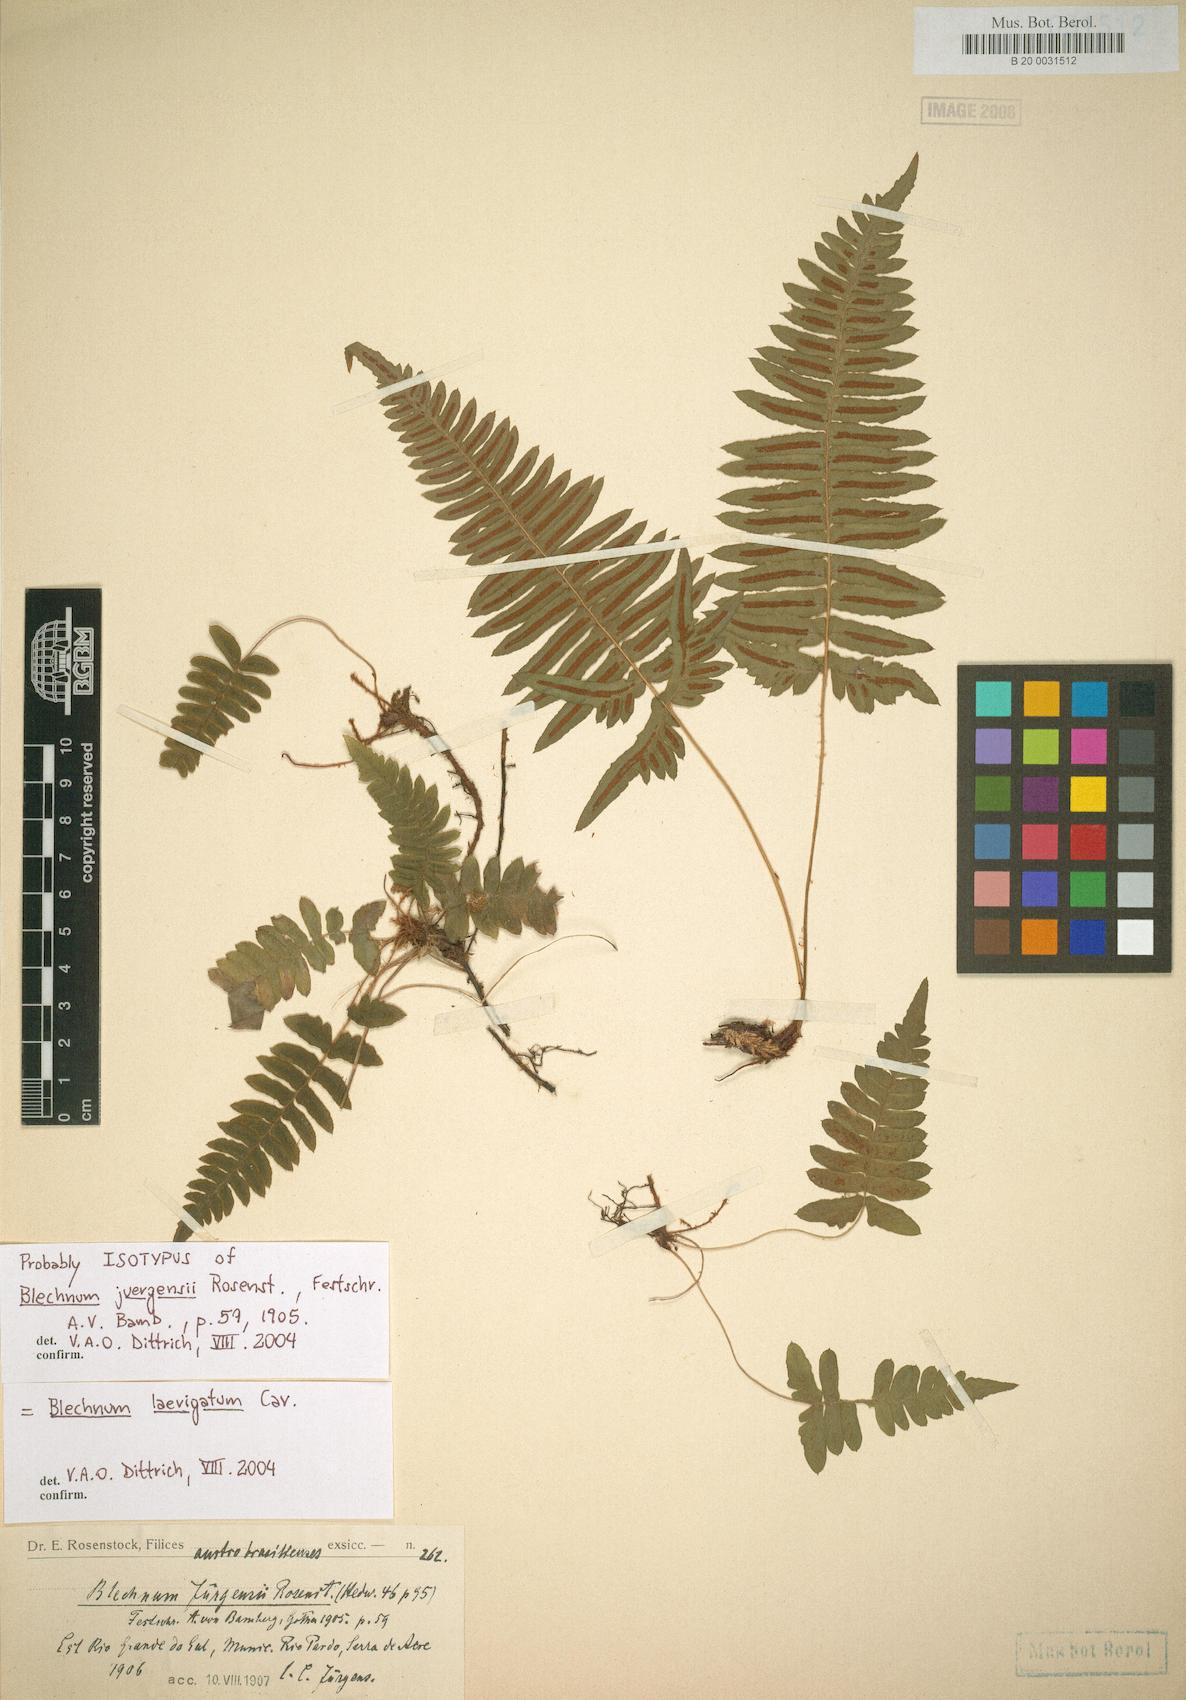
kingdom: Plantae
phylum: Tracheophyta
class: Polypodiopsida
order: Polypodiales
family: Blechnaceae
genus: Blechnum
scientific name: Blechnum laevigatum
